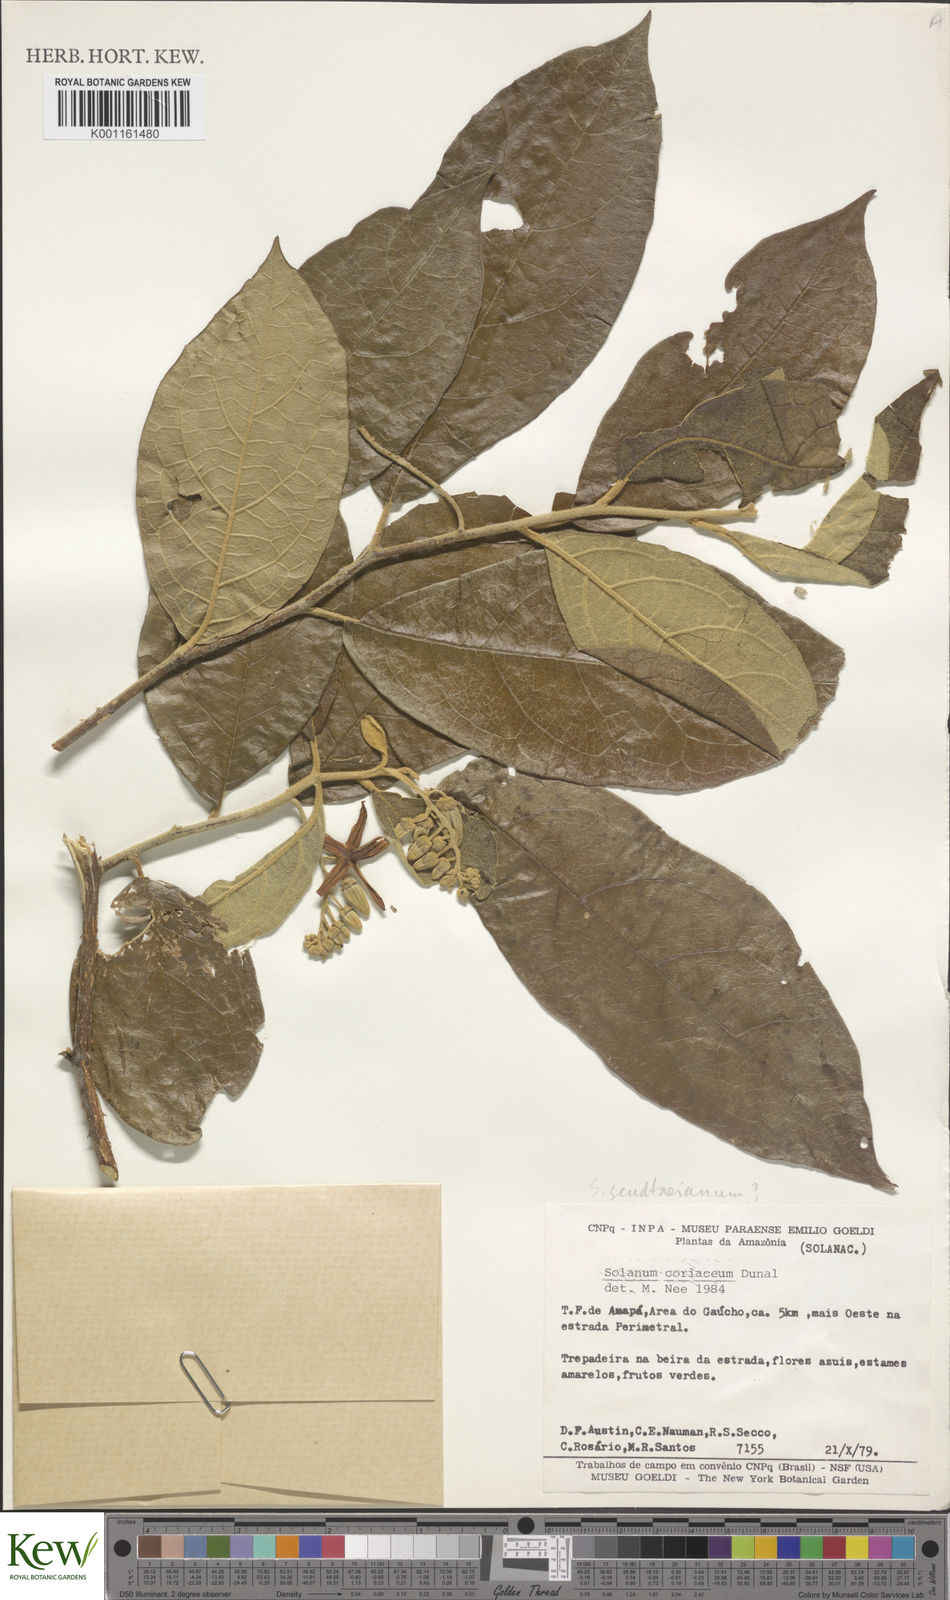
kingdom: Plantae
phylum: Tracheophyta
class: Magnoliopsida
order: Solanales
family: Solanaceae
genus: Solanum
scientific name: Solanum coriaceum
